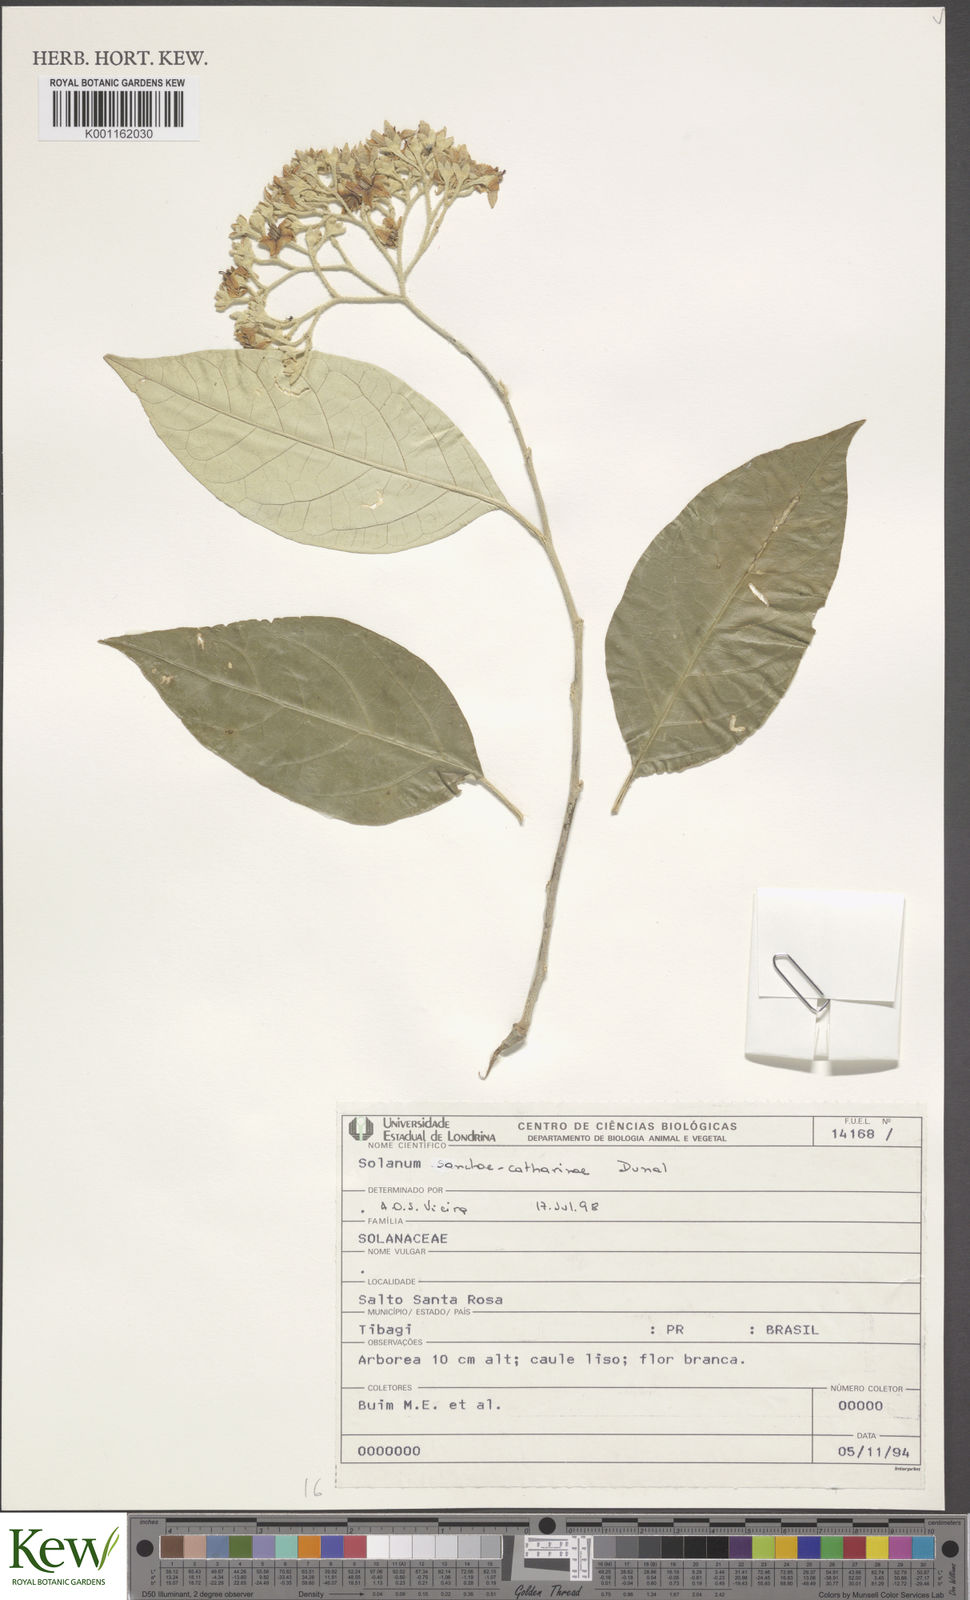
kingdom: Plantae
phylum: Tracheophyta
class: Magnoliopsida
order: Solanales
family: Solanaceae
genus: Solanum
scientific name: Solanum sanctae-catharinae
